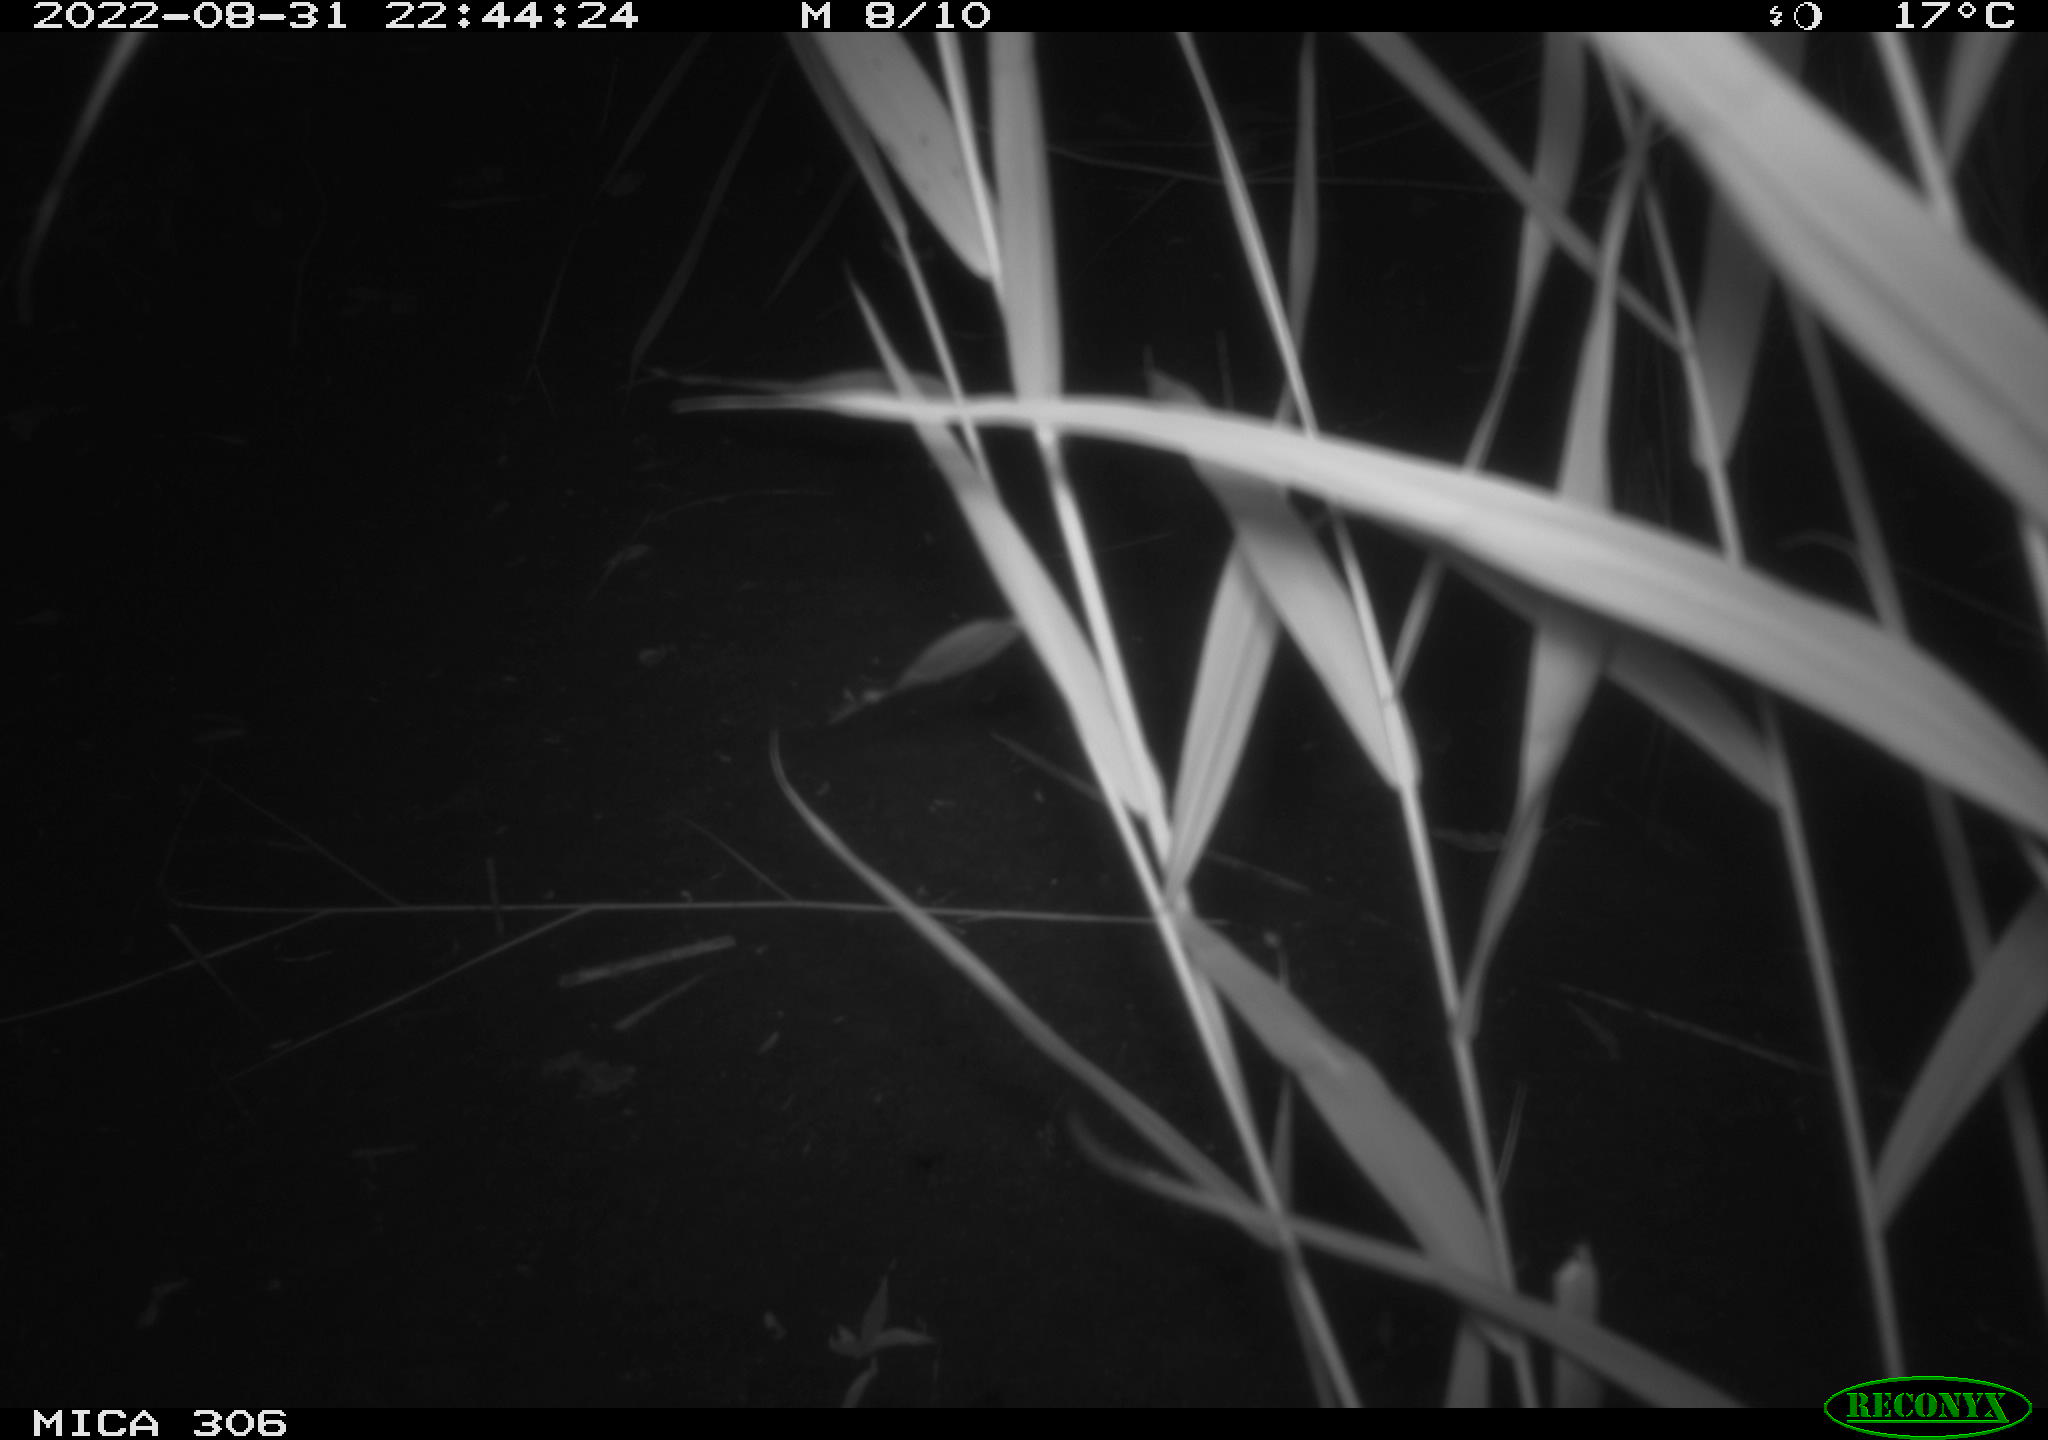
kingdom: Animalia
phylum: Chordata
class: Mammalia
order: Rodentia
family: Muridae
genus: Rattus
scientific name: Rattus norvegicus
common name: Brown rat
